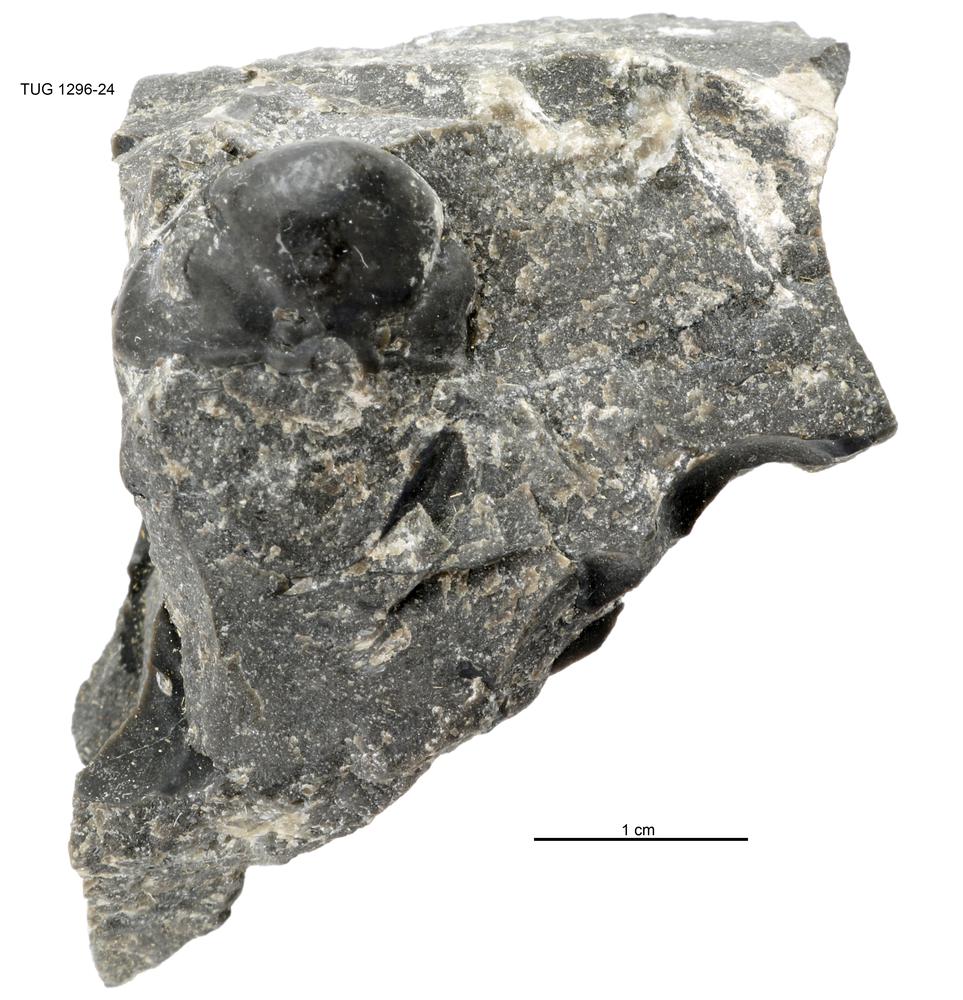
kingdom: Animalia
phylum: Arthropoda
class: Trilobita
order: Asaphida
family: Trinucleidae
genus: Deanaspis
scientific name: Deanaspis
